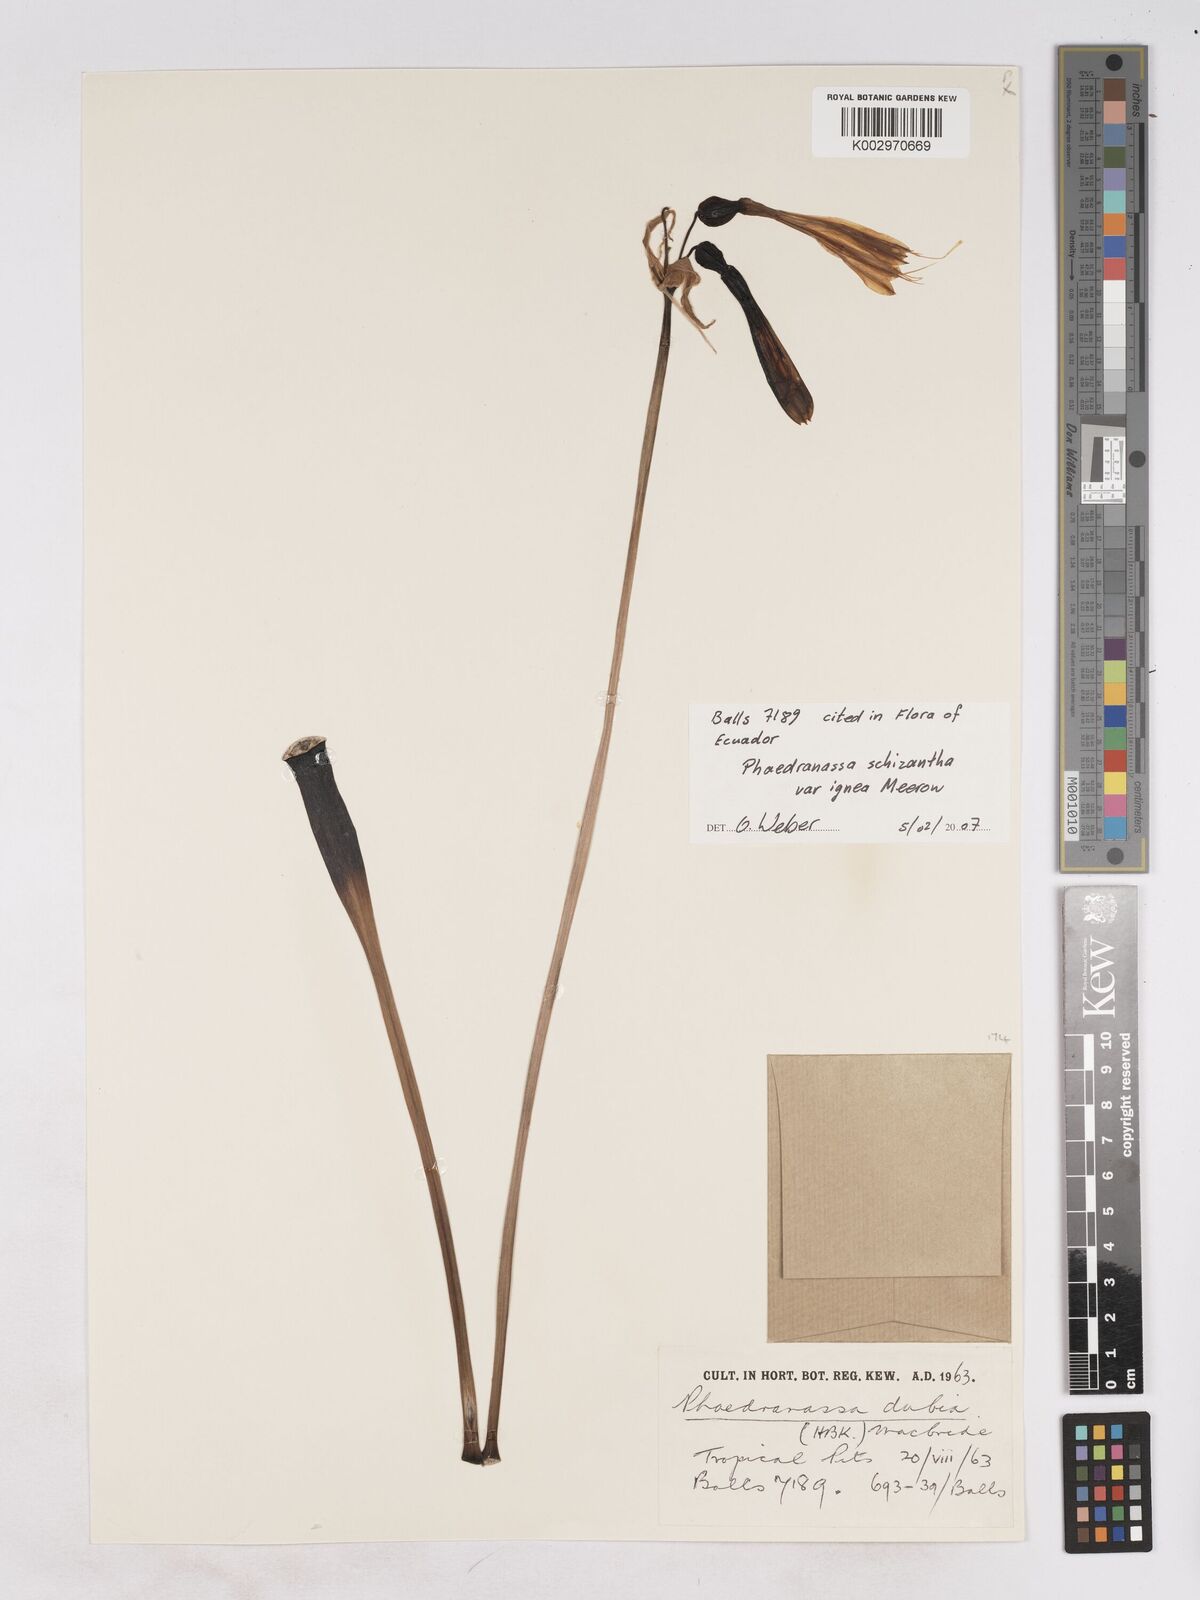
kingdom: Plantae
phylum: Tracheophyta
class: Liliopsida
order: Asparagales
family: Amaryllidaceae
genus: Phaedranassa
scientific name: Phaedranassa schizantha
